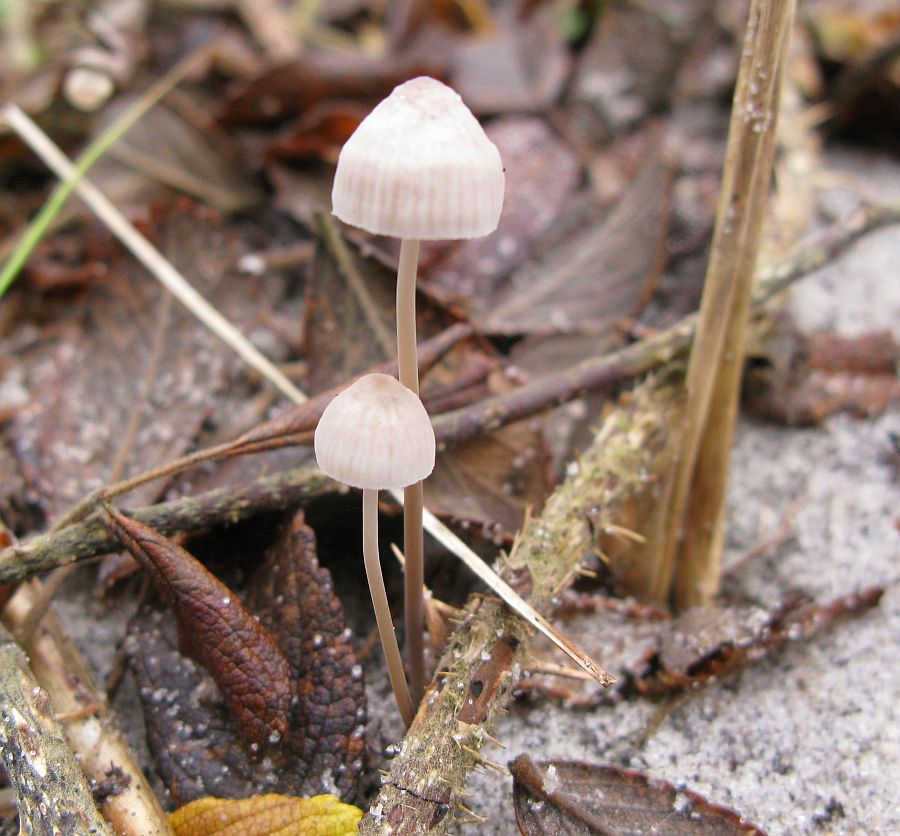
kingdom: Fungi
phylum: Basidiomycota
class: Agaricomycetes
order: Agaricales
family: Mycenaceae
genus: Mycena
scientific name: Mycena leptocephala
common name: klor-huesvamp
